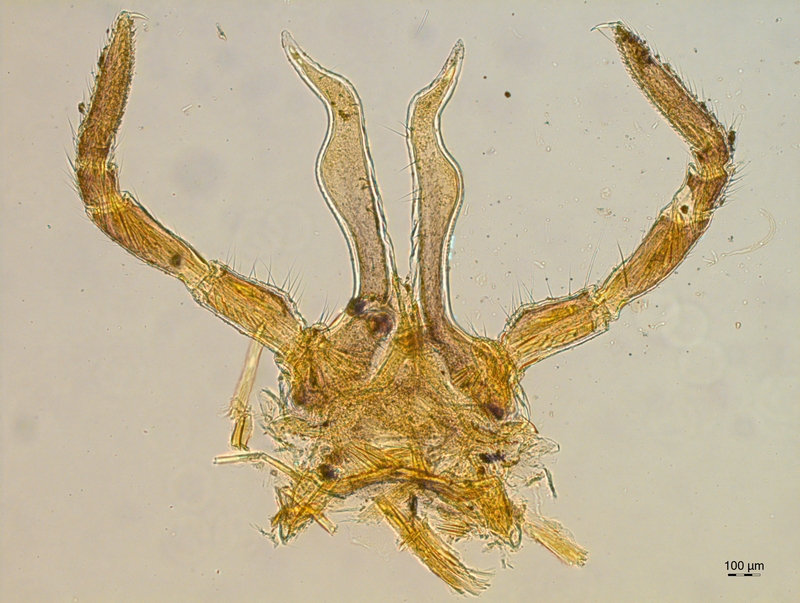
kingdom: Animalia
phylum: Arthropoda
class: Diplopoda
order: Chordeumatida
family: Attemsiidae
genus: Attemsia
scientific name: Attemsia stygia
